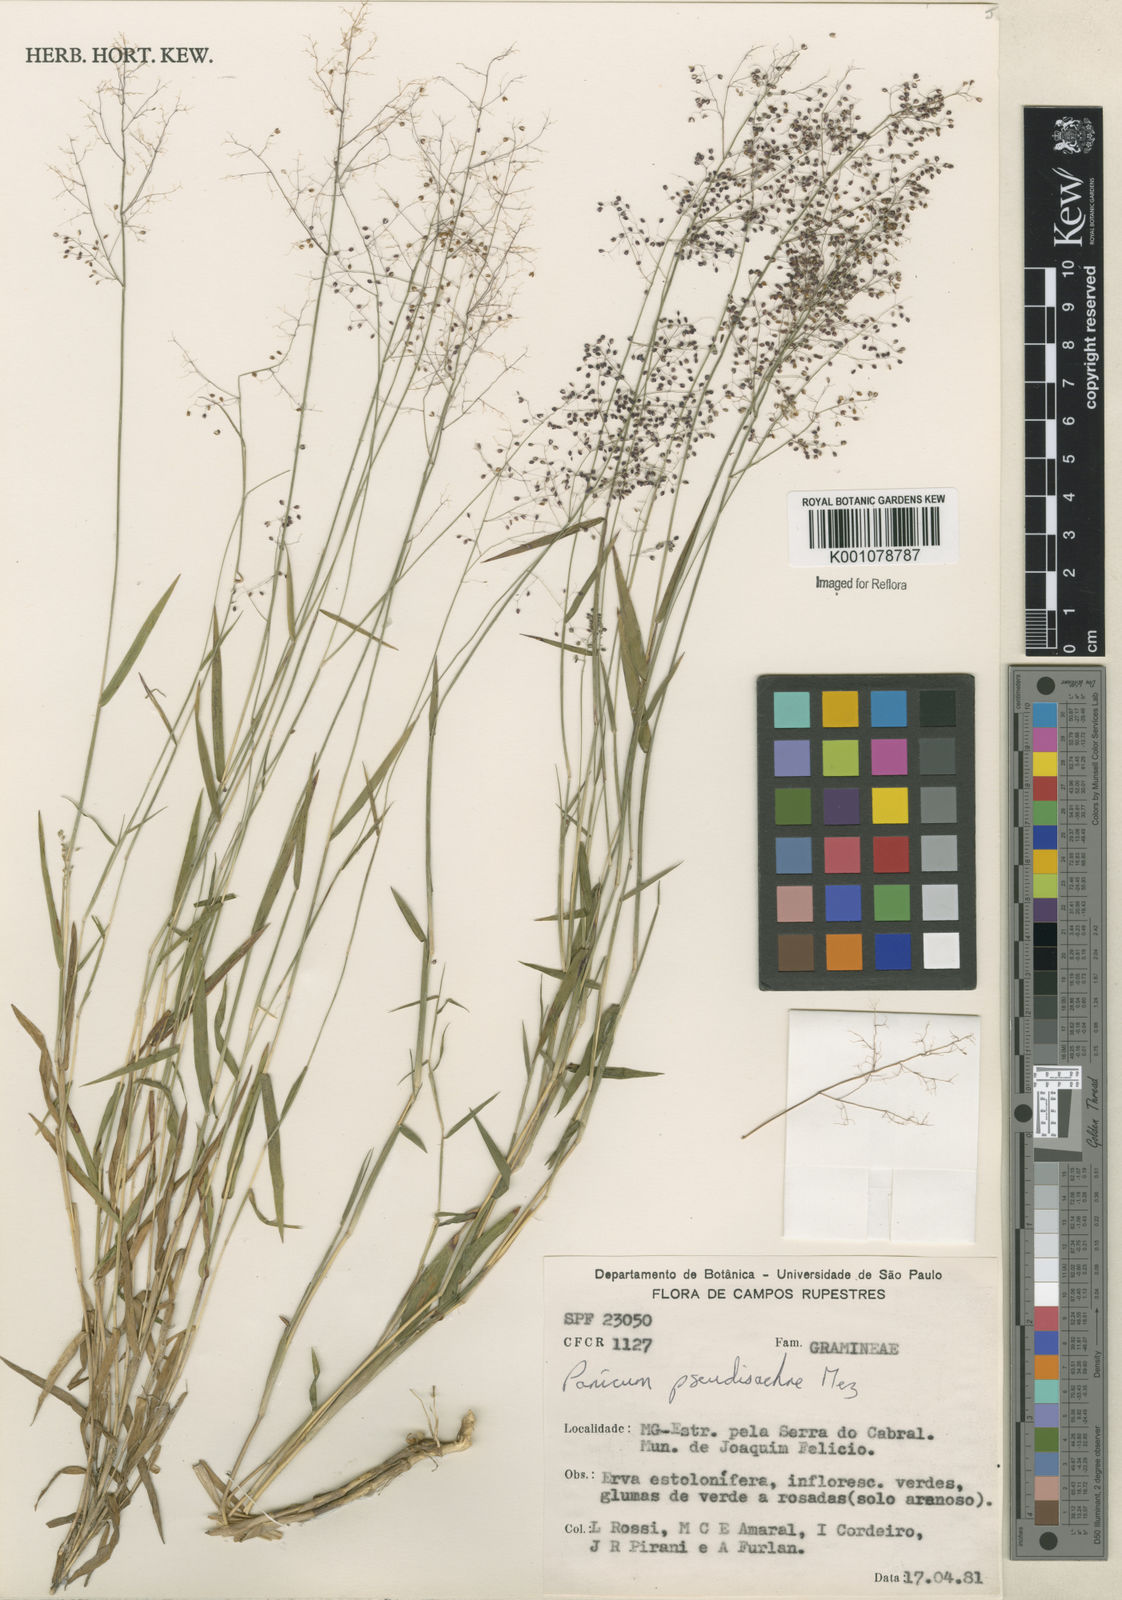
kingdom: Plantae
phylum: Tracheophyta
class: Liliopsida
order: Poales
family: Poaceae
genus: Trichanthecium
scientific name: Trichanthecium pseudisachne
